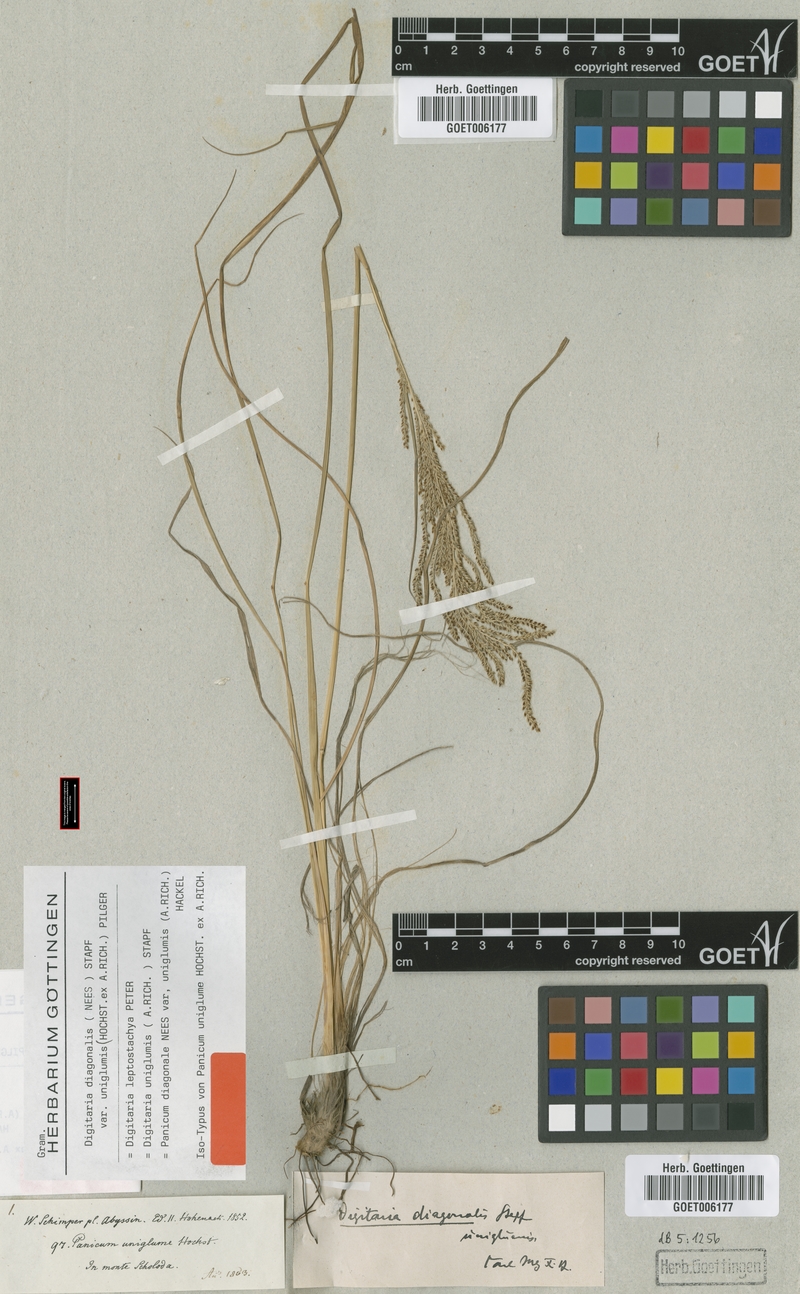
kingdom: Plantae
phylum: Tracheophyta
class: Liliopsida
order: Poales
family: Poaceae
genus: Digitaria
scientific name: Digitaria diagonalis
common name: Brown-seed finger grass
